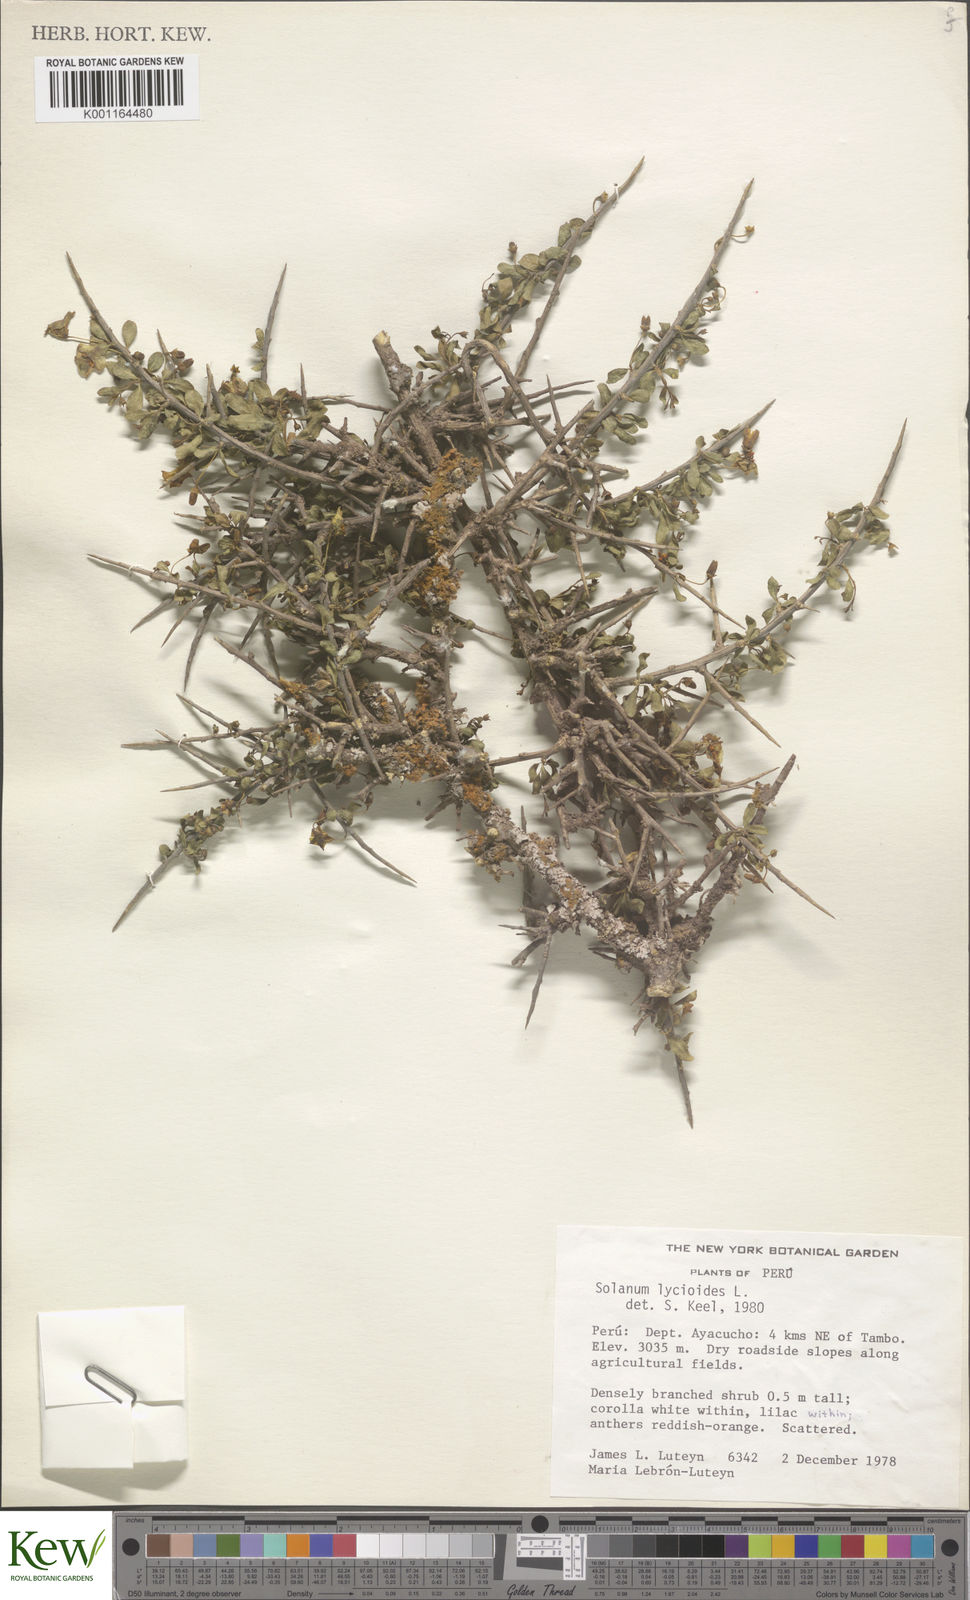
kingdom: Plantae
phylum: Tracheophyta
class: Magnoliopsida
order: Solanales
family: Solanaceae
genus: Solanum
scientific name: Solanum luteoalbum
